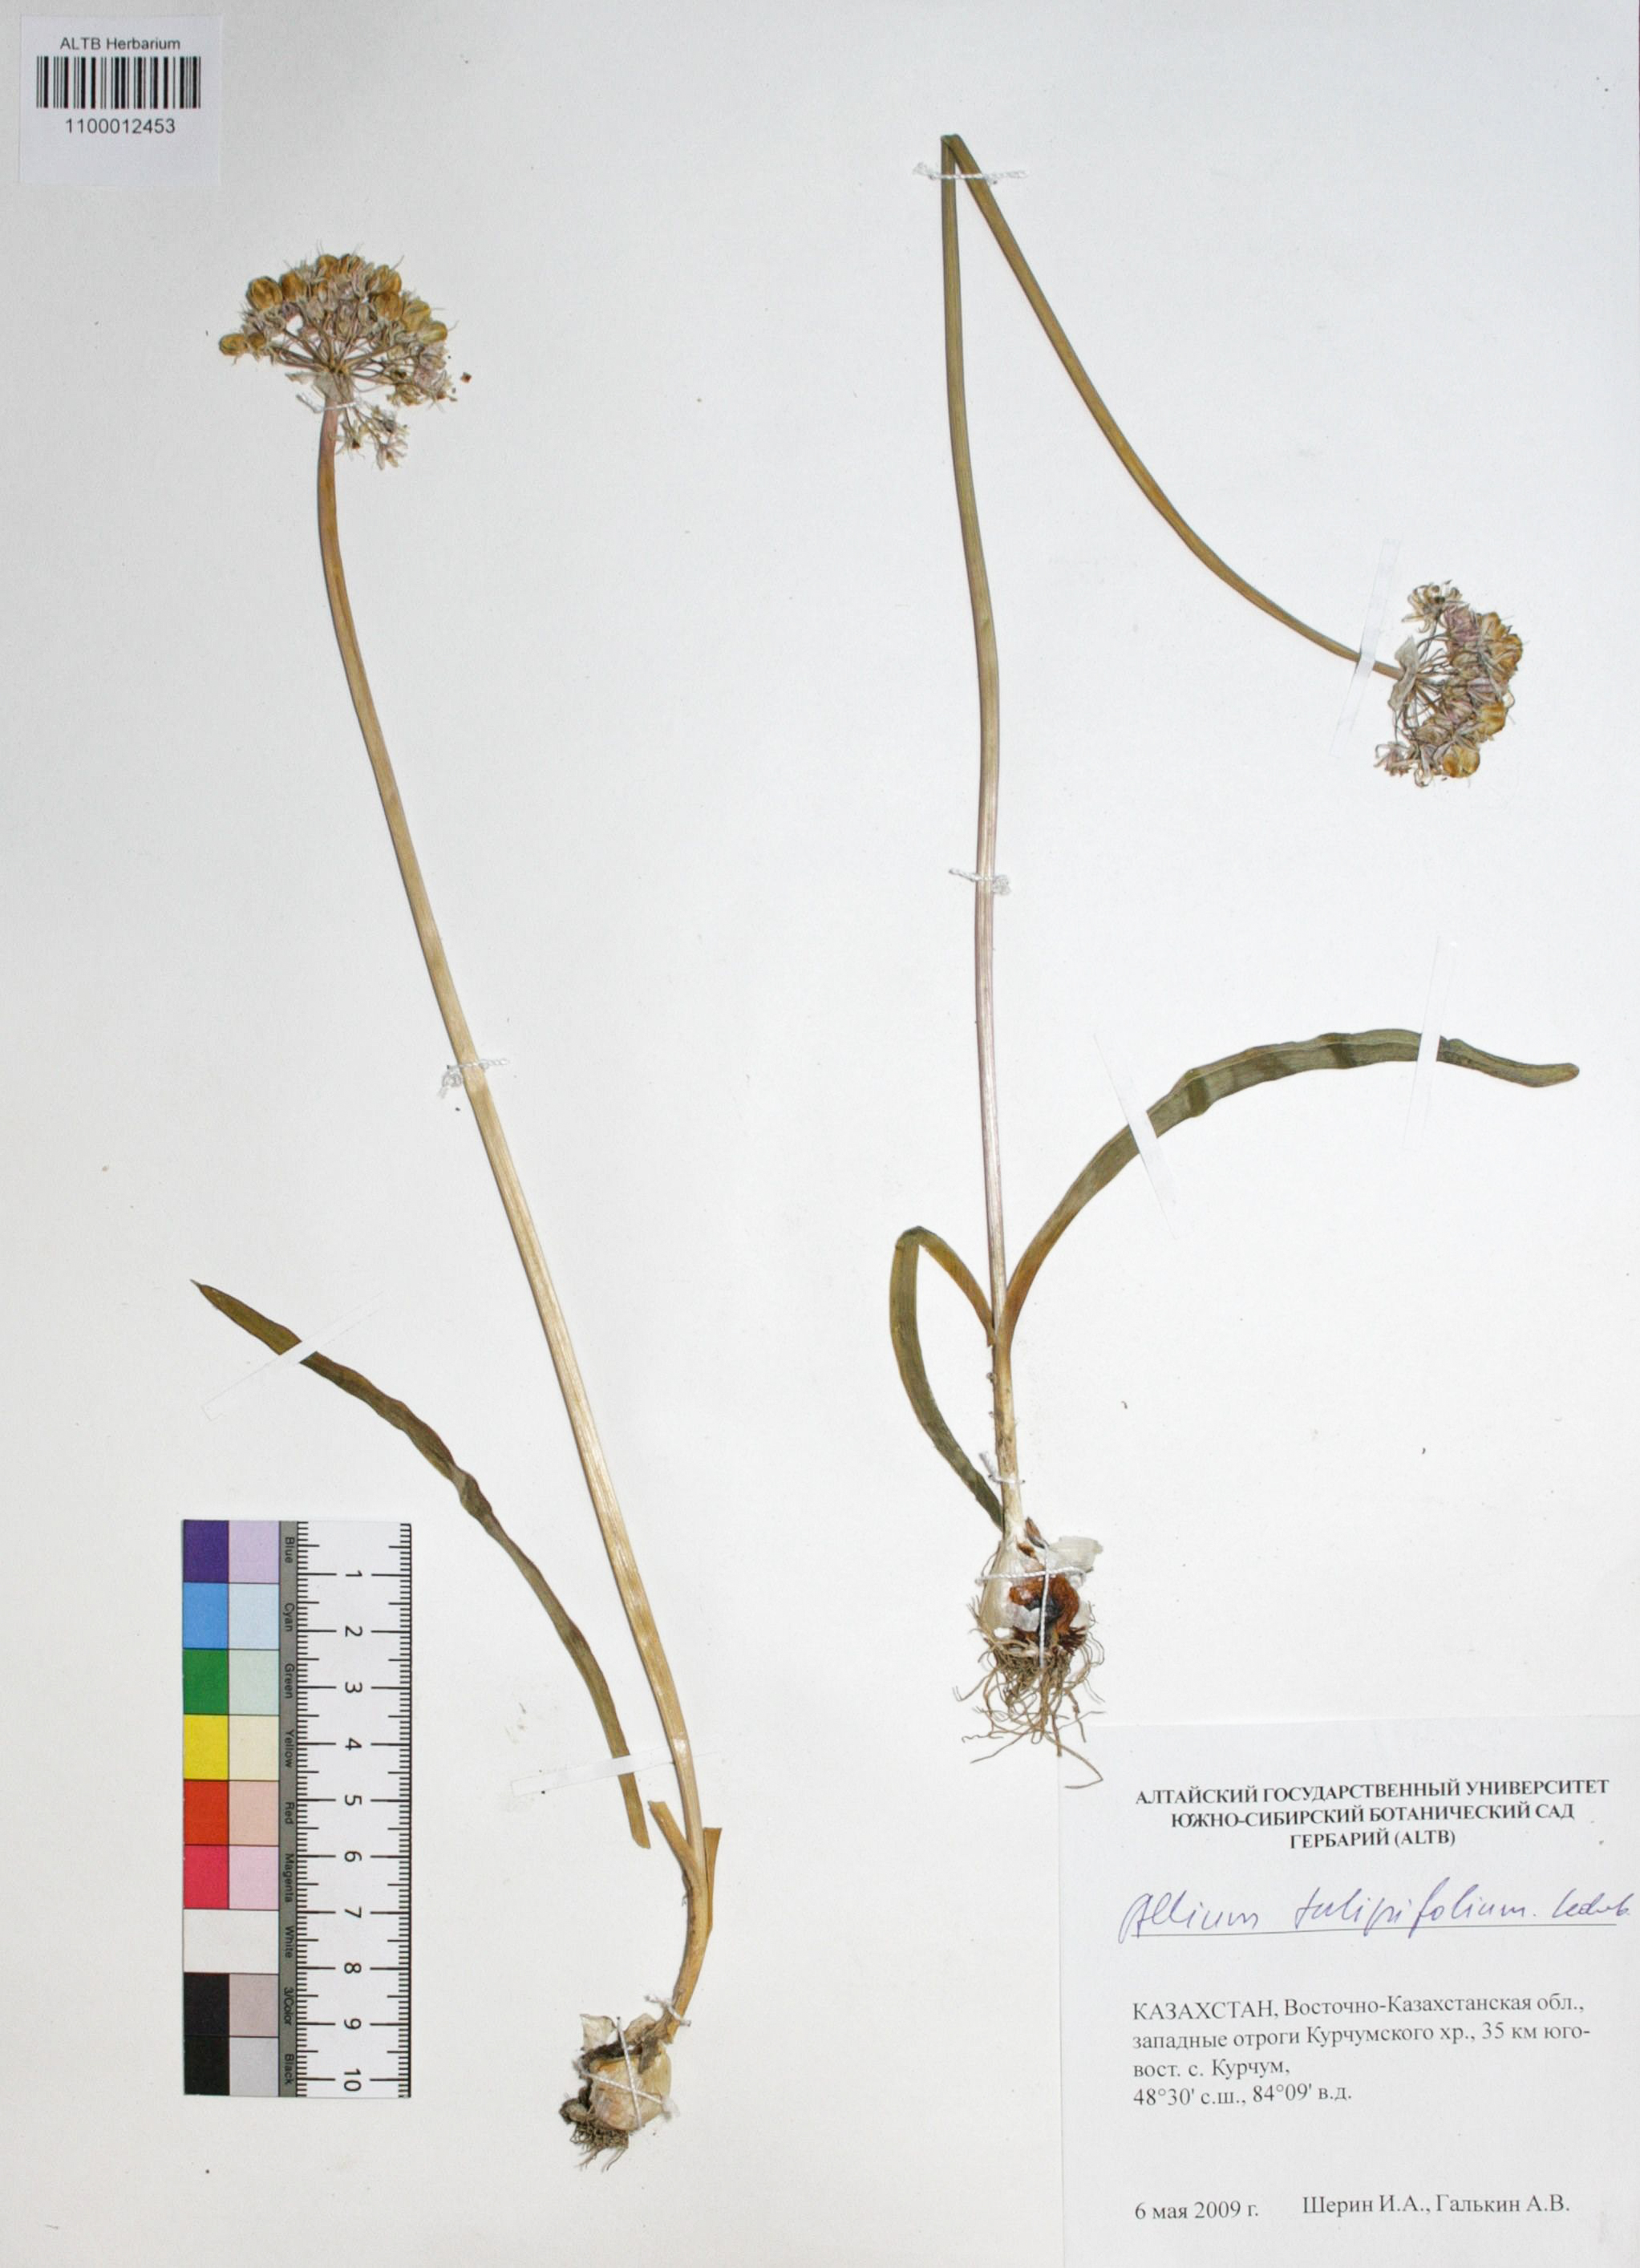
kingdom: Plantae
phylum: Tracheophyta
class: Liliopsida
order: Asparagales
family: Amaryllidaceae
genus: Allium
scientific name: Allium tulipifolium
